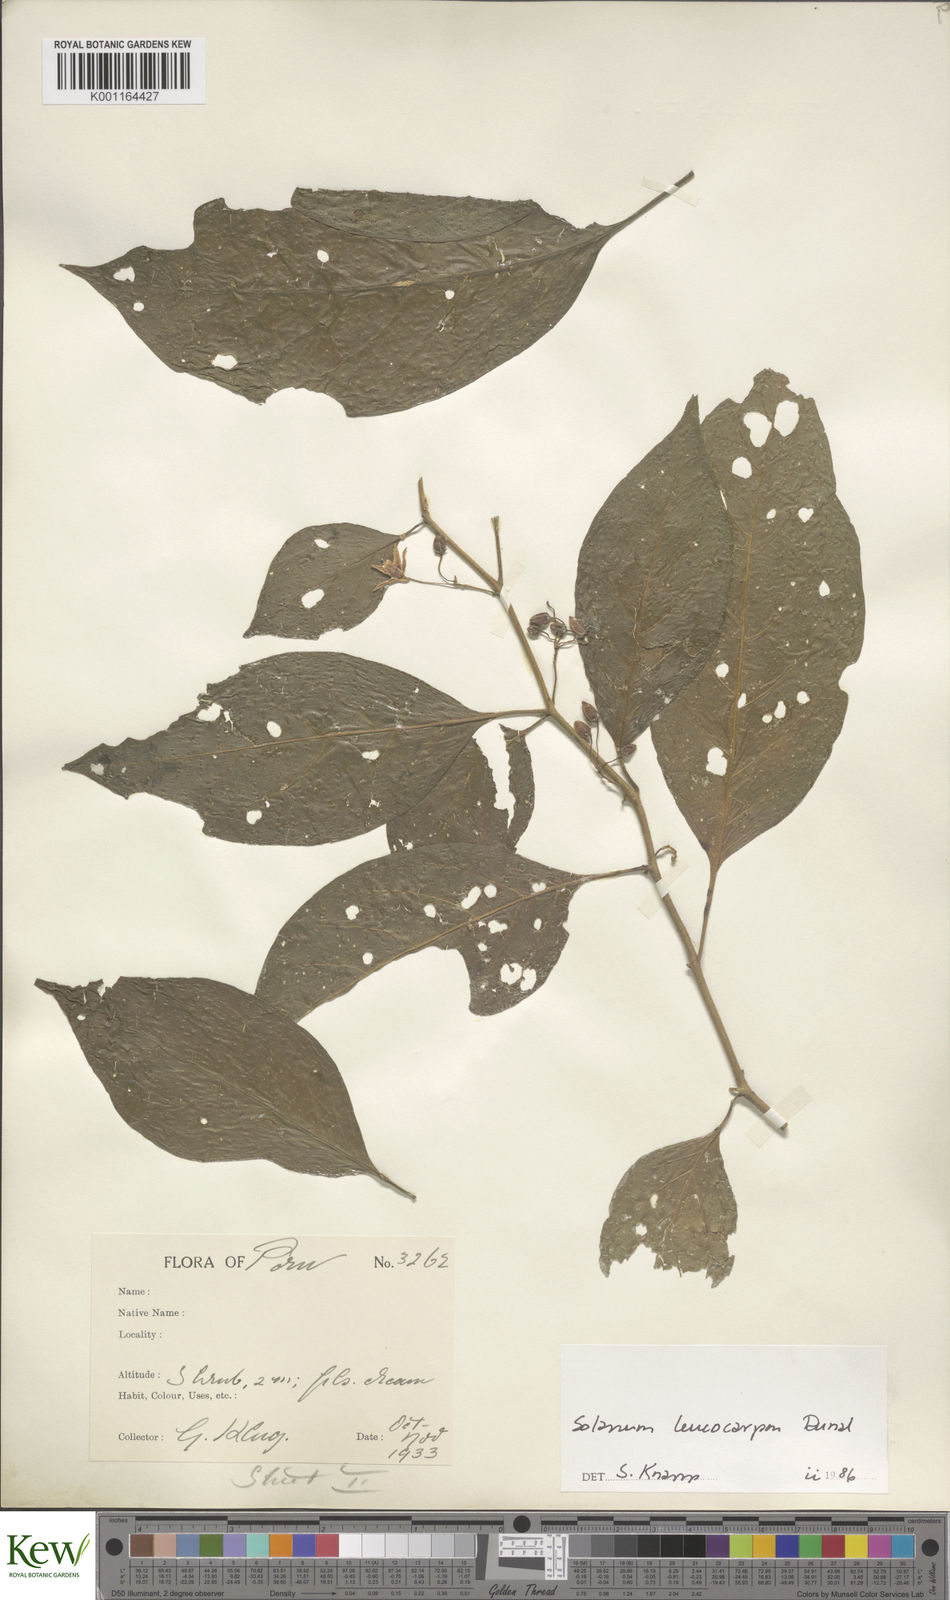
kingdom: Plantae
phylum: Tracheophyta
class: Magnoliopsida
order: Solanales
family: Solanaceae
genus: Solanum
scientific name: Solanum leucocarpon
